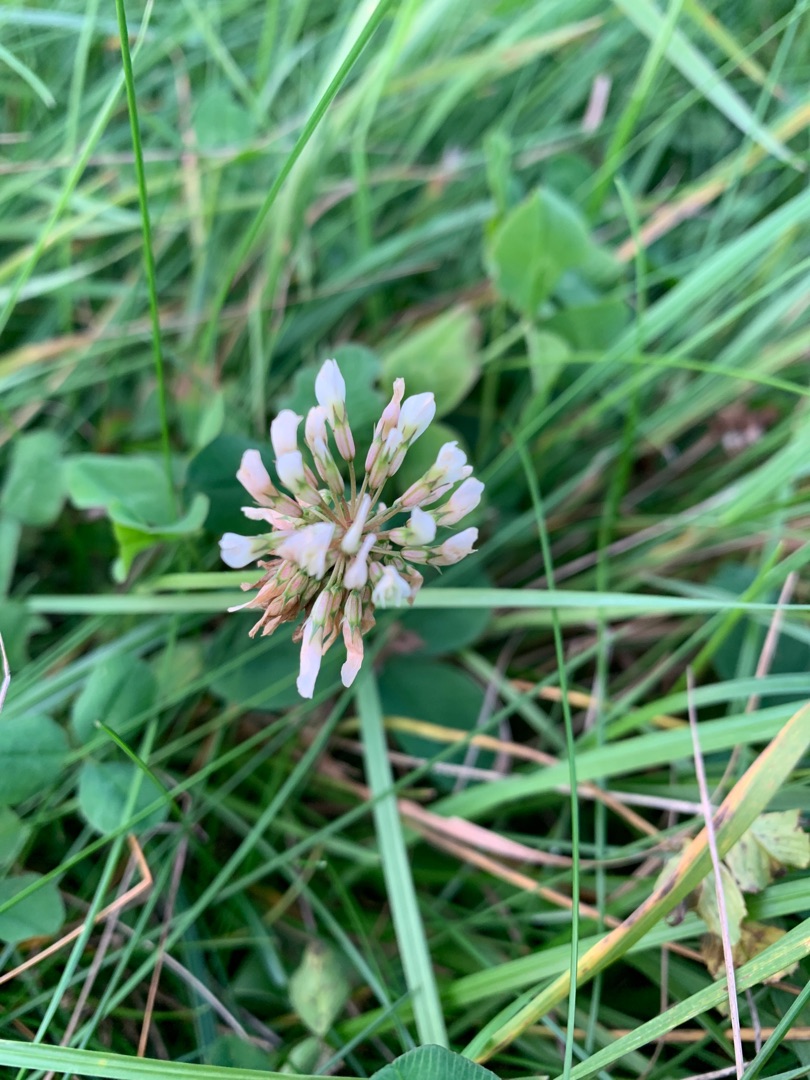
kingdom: Plantae
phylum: Tracheophyta
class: Magnoliopsida
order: Fabales
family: Fabaceae
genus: Trifolium
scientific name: Trifolium repens
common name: Hvid-kløver
